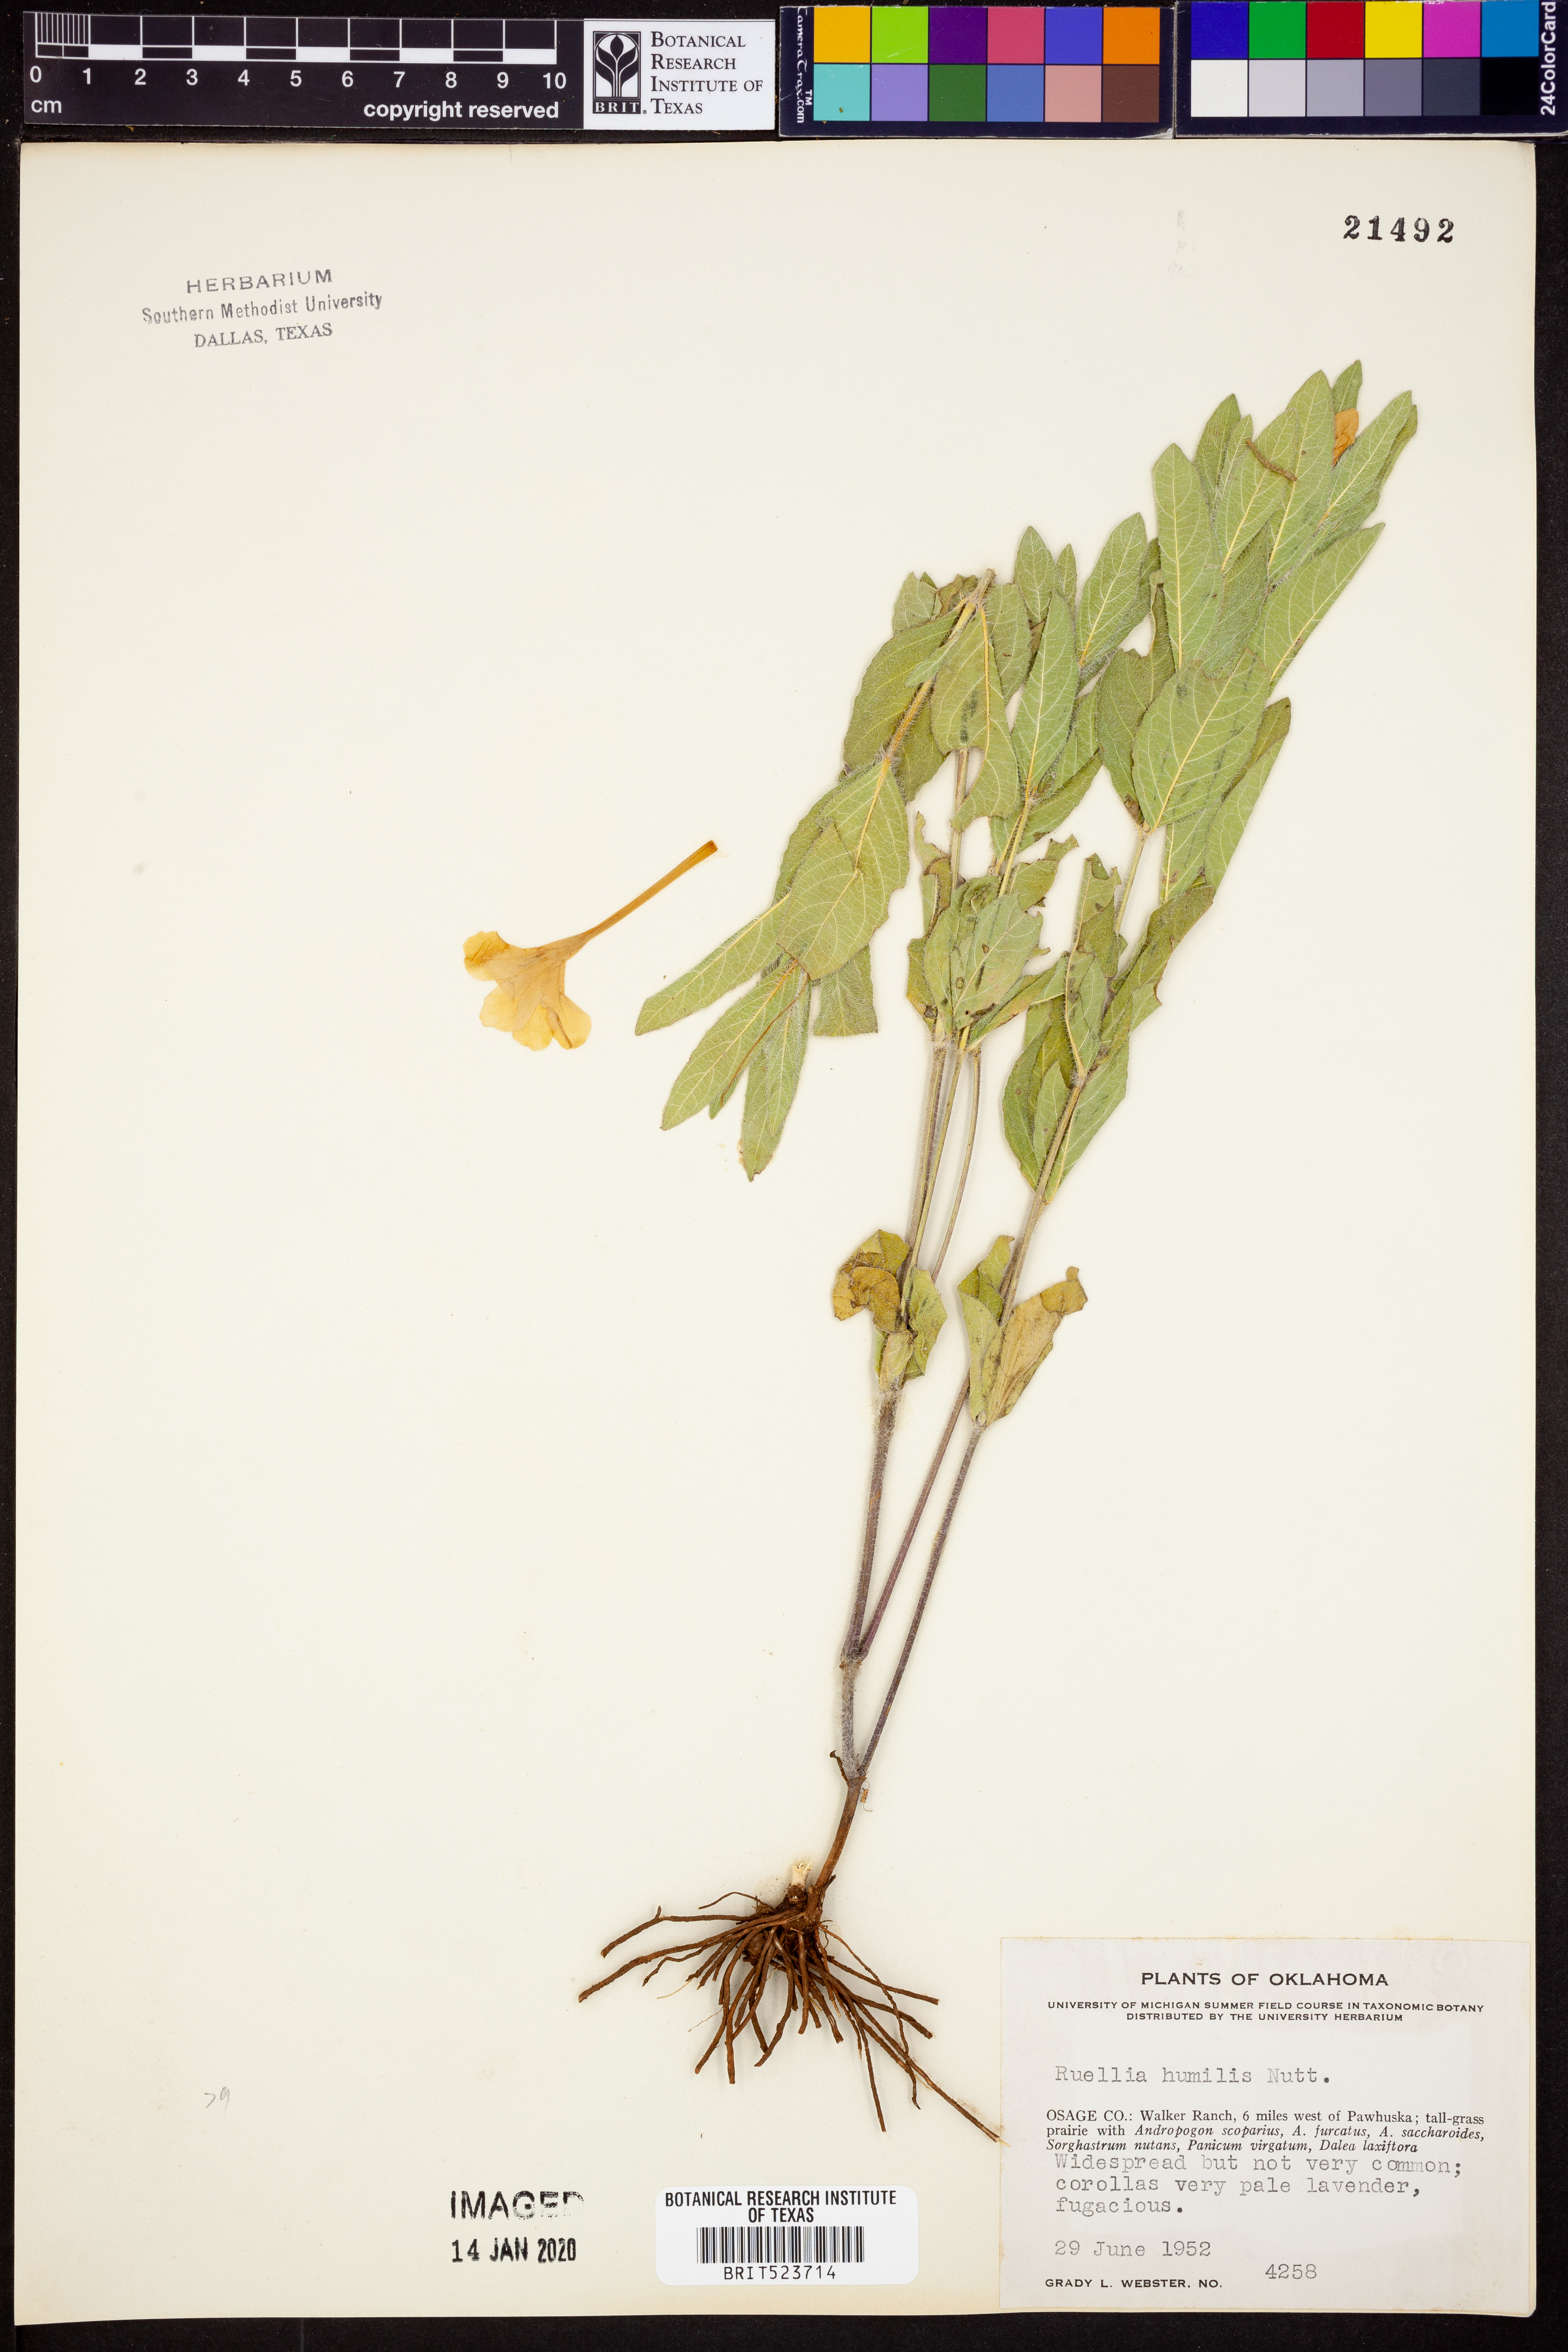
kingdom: Plantae
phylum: Tracheophyta
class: Magnoliopsida
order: Lamiales
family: Acanthaceae
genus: Ruellia
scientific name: Ruellia humilis
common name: Fringe-leaf ruellia
